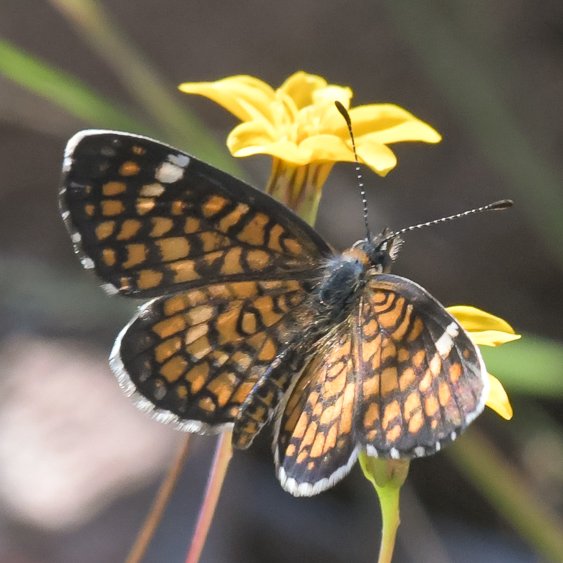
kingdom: Animalia
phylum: Arthropoda
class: Insecta
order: Lepidoptera
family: Nymphalidae
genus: Dymasia
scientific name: Dymasia dymas
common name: Tiny Checkerspot
